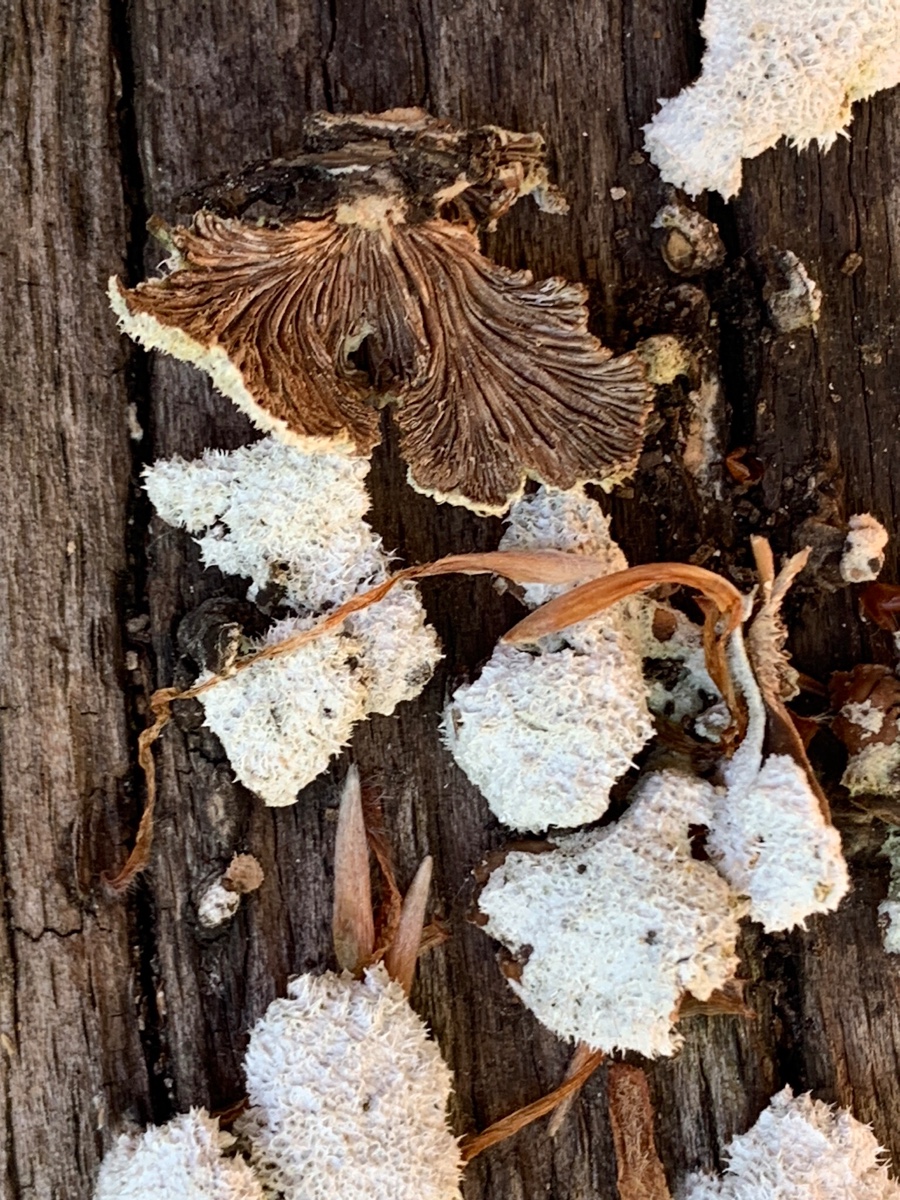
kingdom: Fungi
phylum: Basidiomycota
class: Agaricomycetes
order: Agaricales
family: Schizophyllaceae
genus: Schizophyllum
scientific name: Schizophyllum commune
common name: kløvblad
